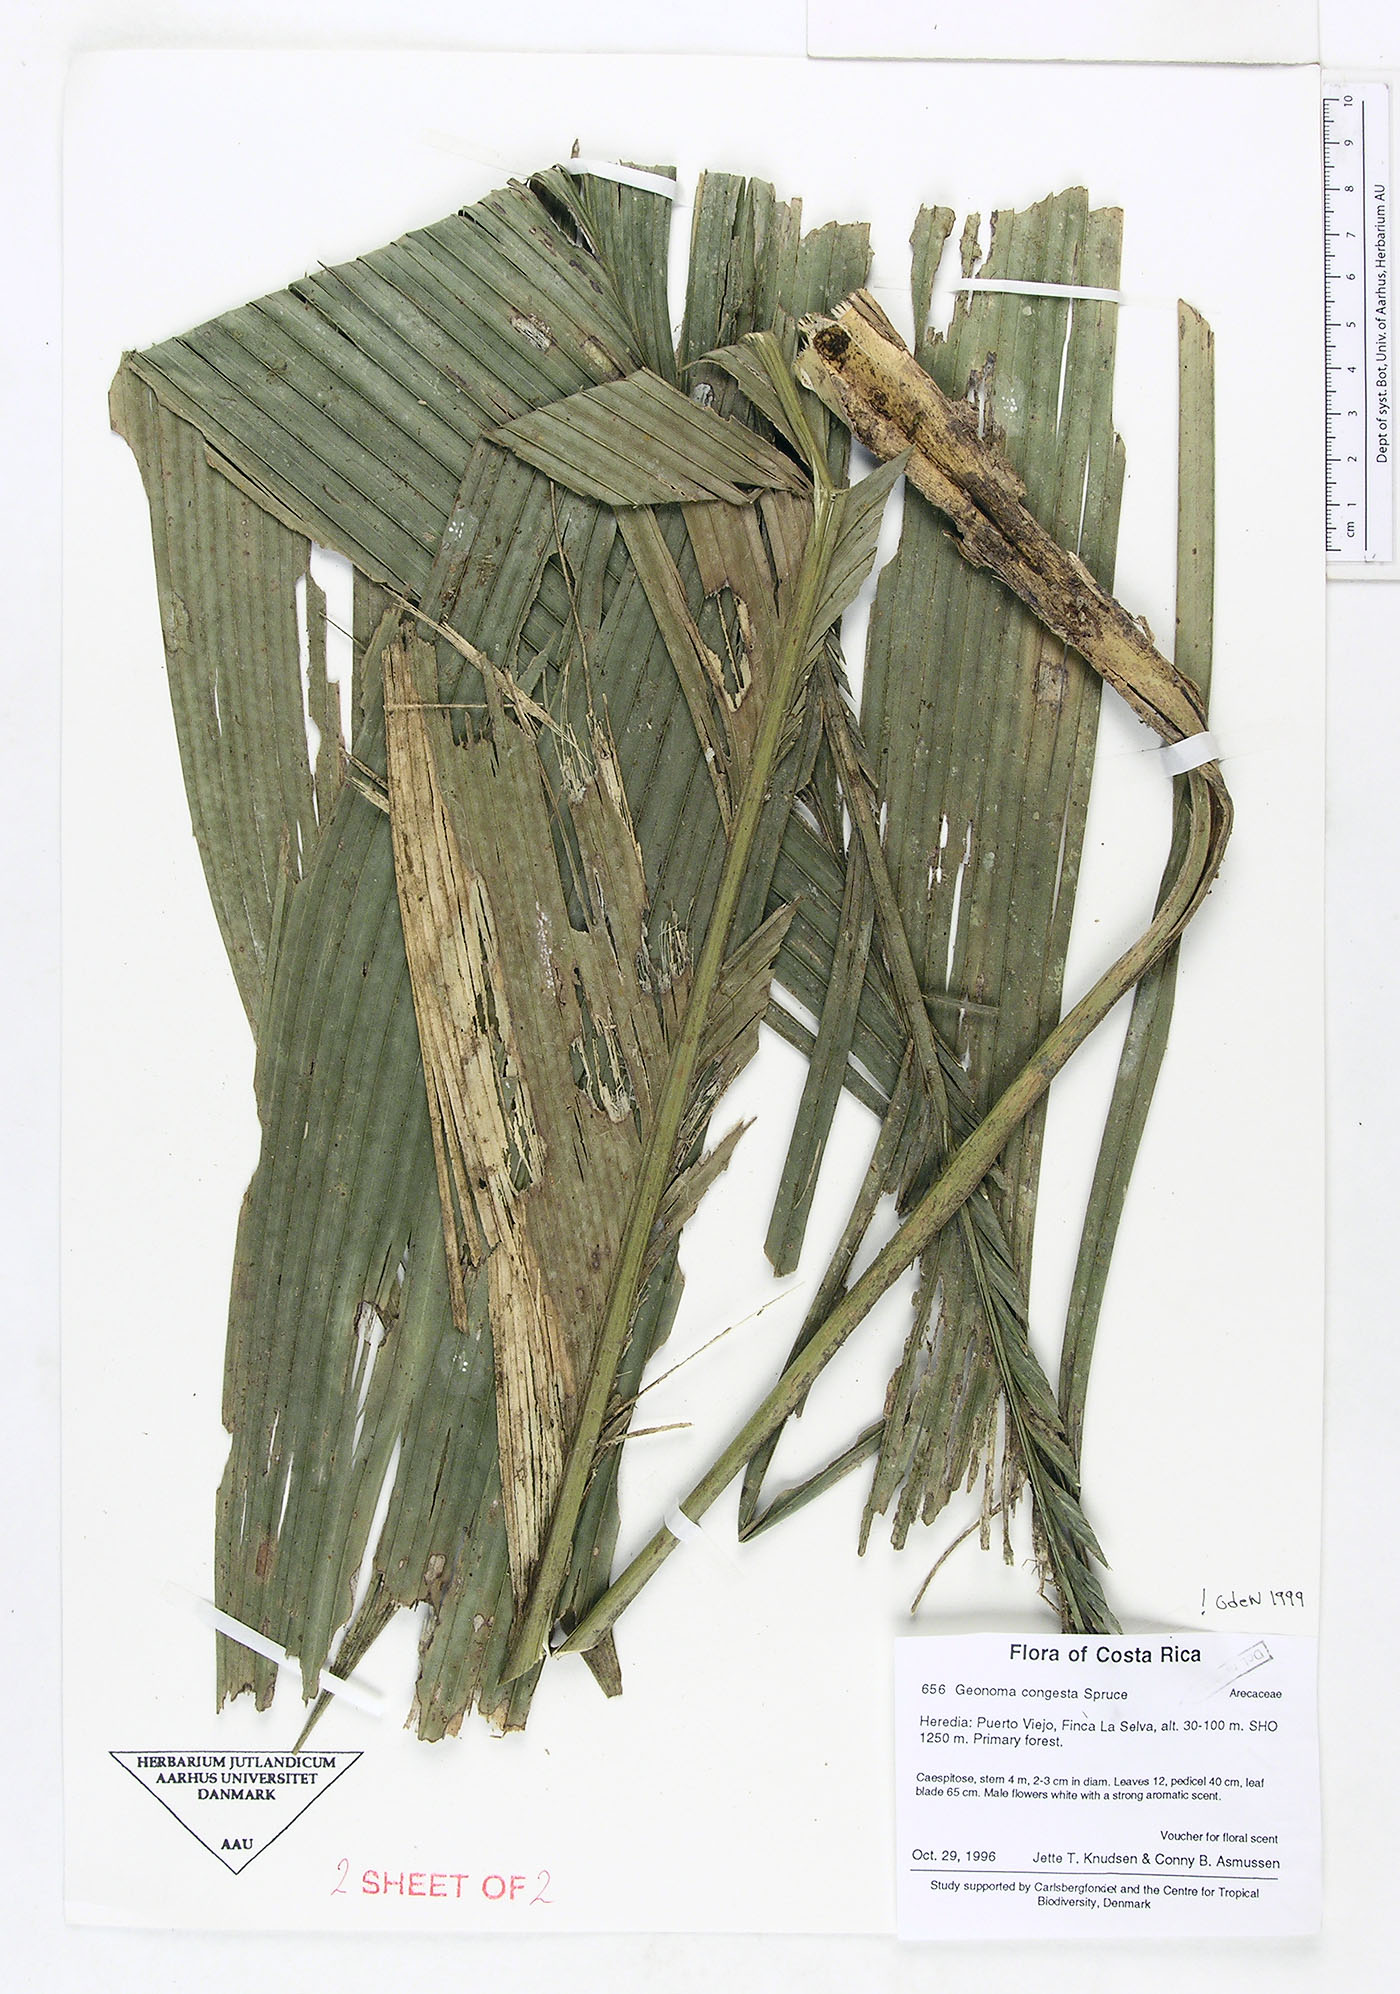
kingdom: Plantae
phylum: Tracheophyta
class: Liliopsida
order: Arecales
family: Arecaceae
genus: Geonoma
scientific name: Geonoma congesta
